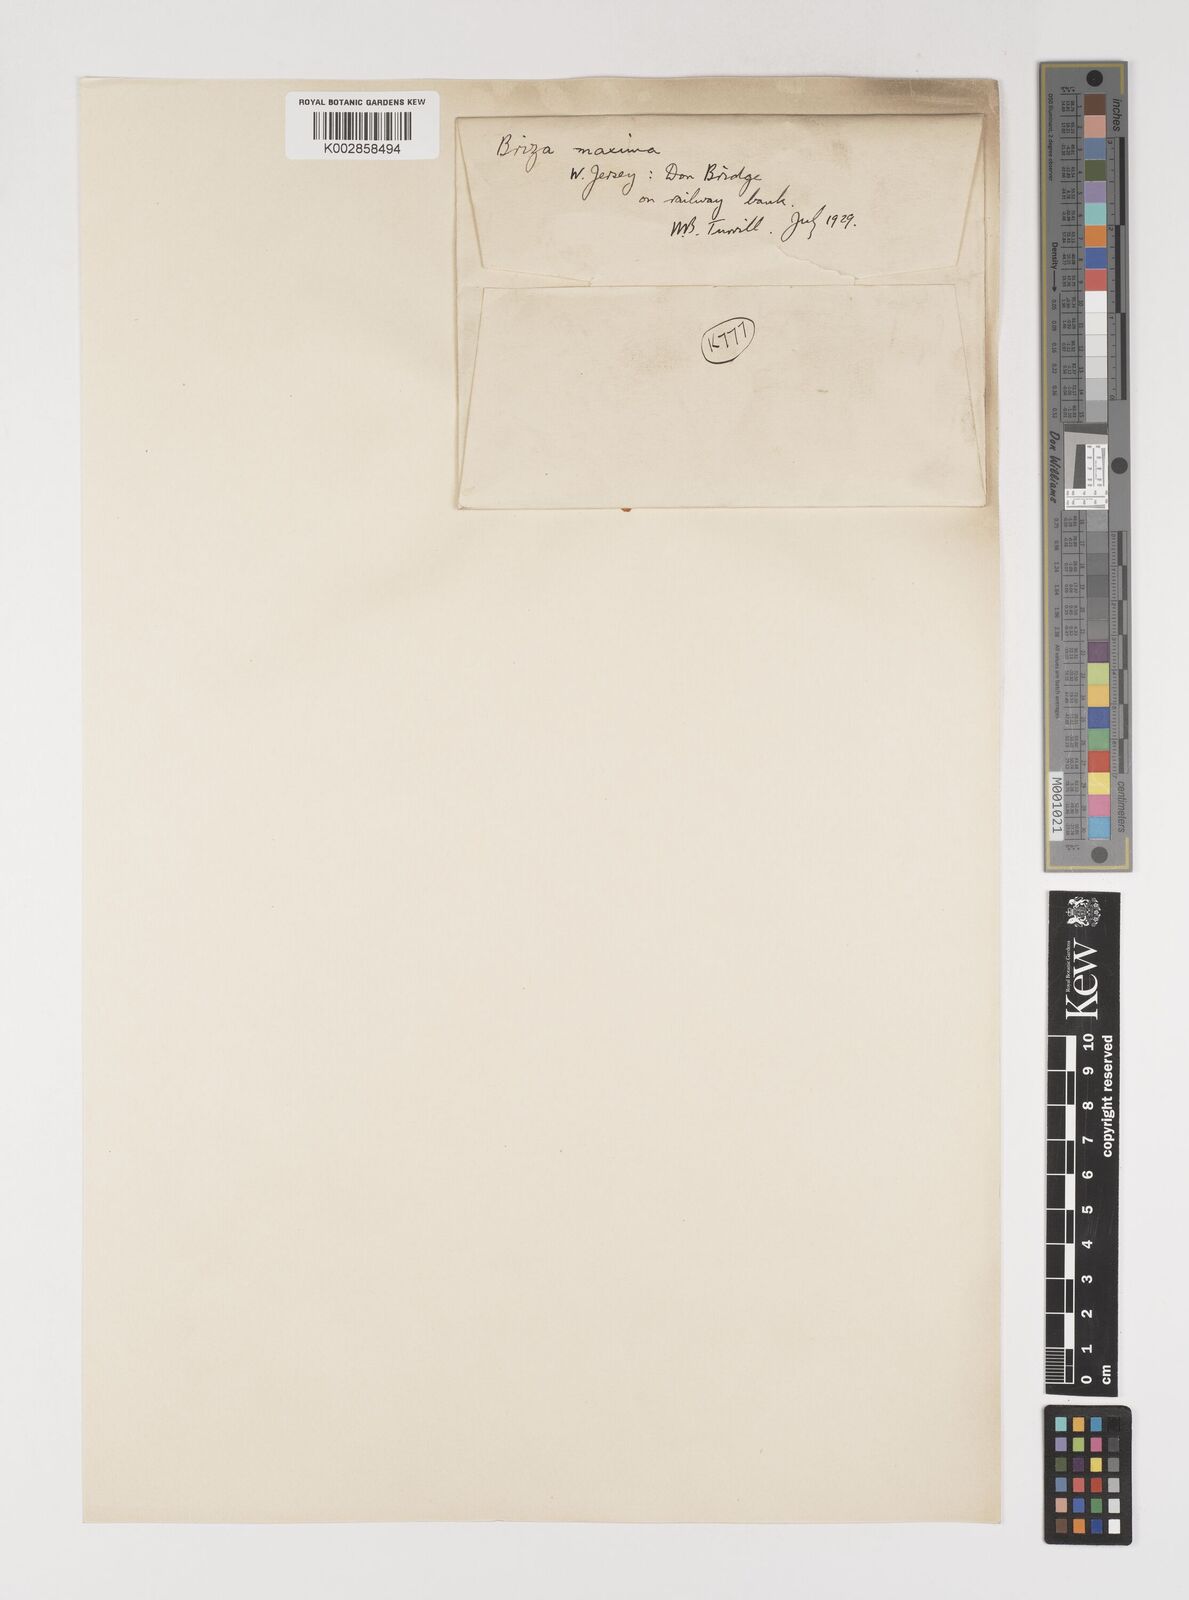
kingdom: Plantae
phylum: Tracheophyta
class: Liliopsida
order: Poales
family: Poaceae
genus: Briza
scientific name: Briza maxima
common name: Big quakinggrass
